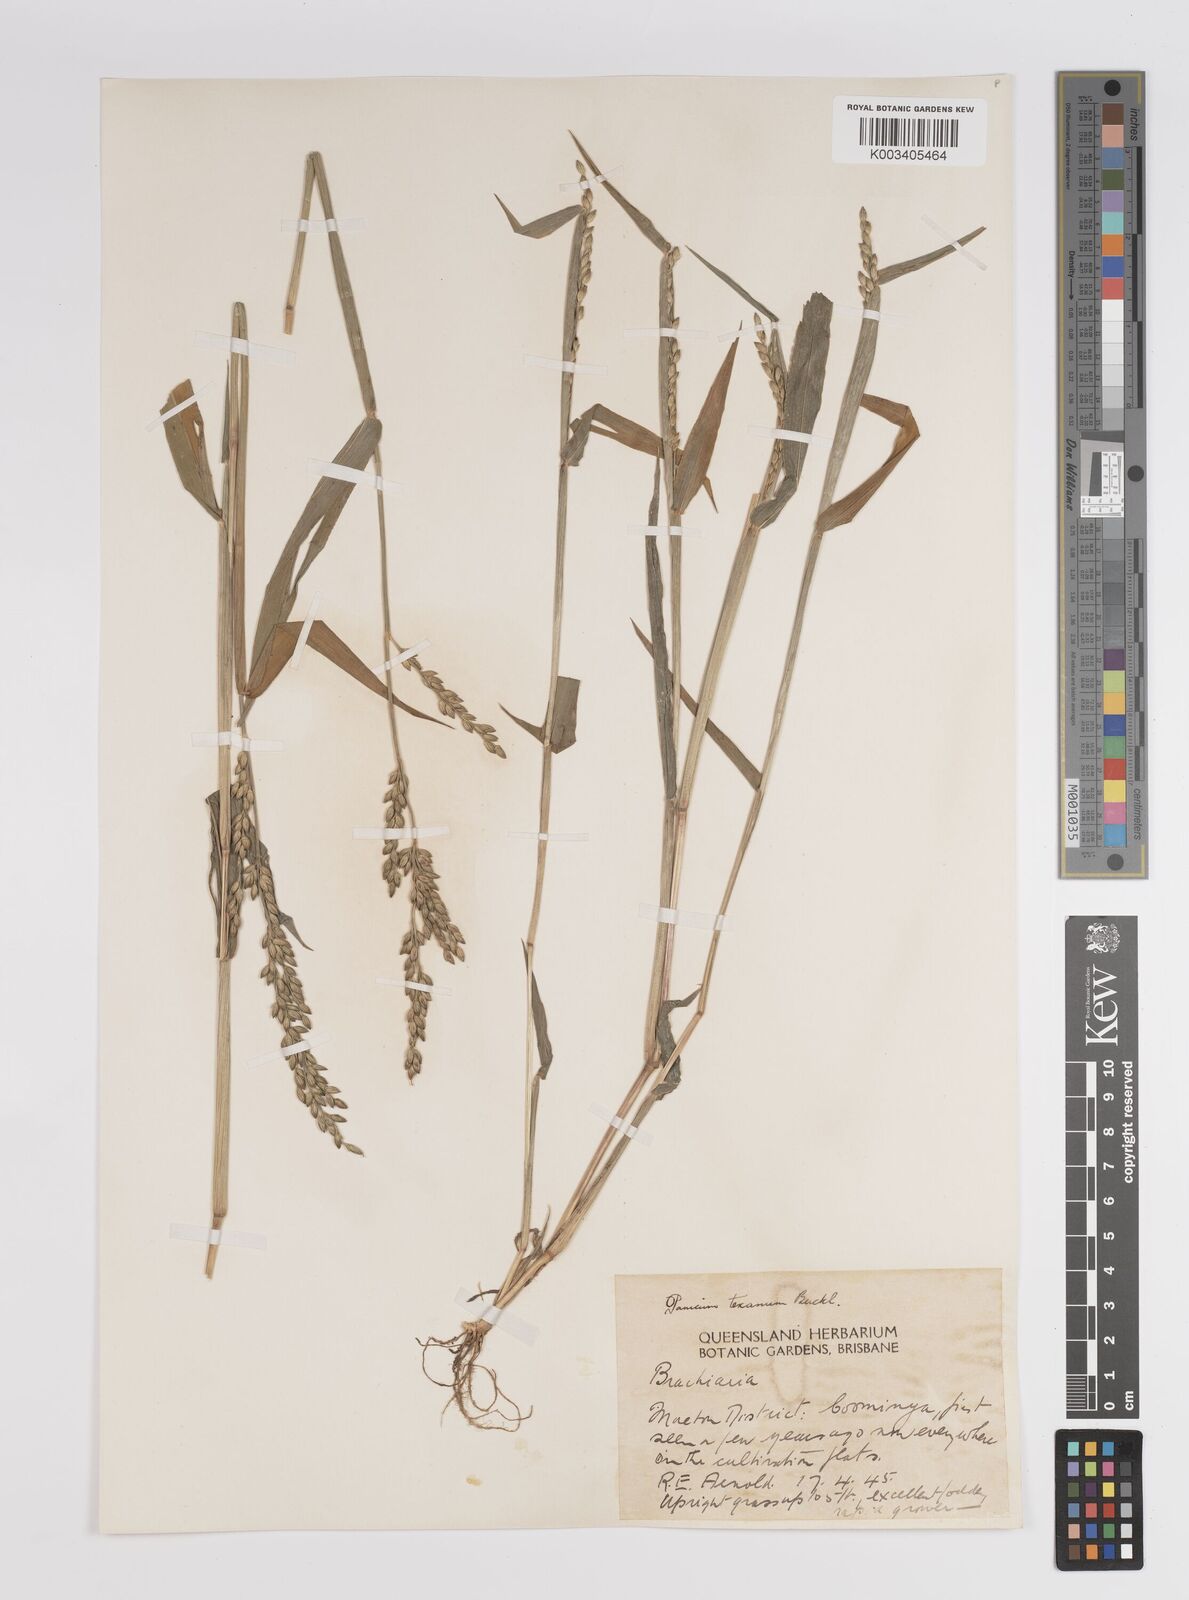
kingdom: Plantae
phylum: Tracheophyta
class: Liliopsida
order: Poales
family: Poaceae
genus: Urochloa
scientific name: Urochloa texana
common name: Texas millet
